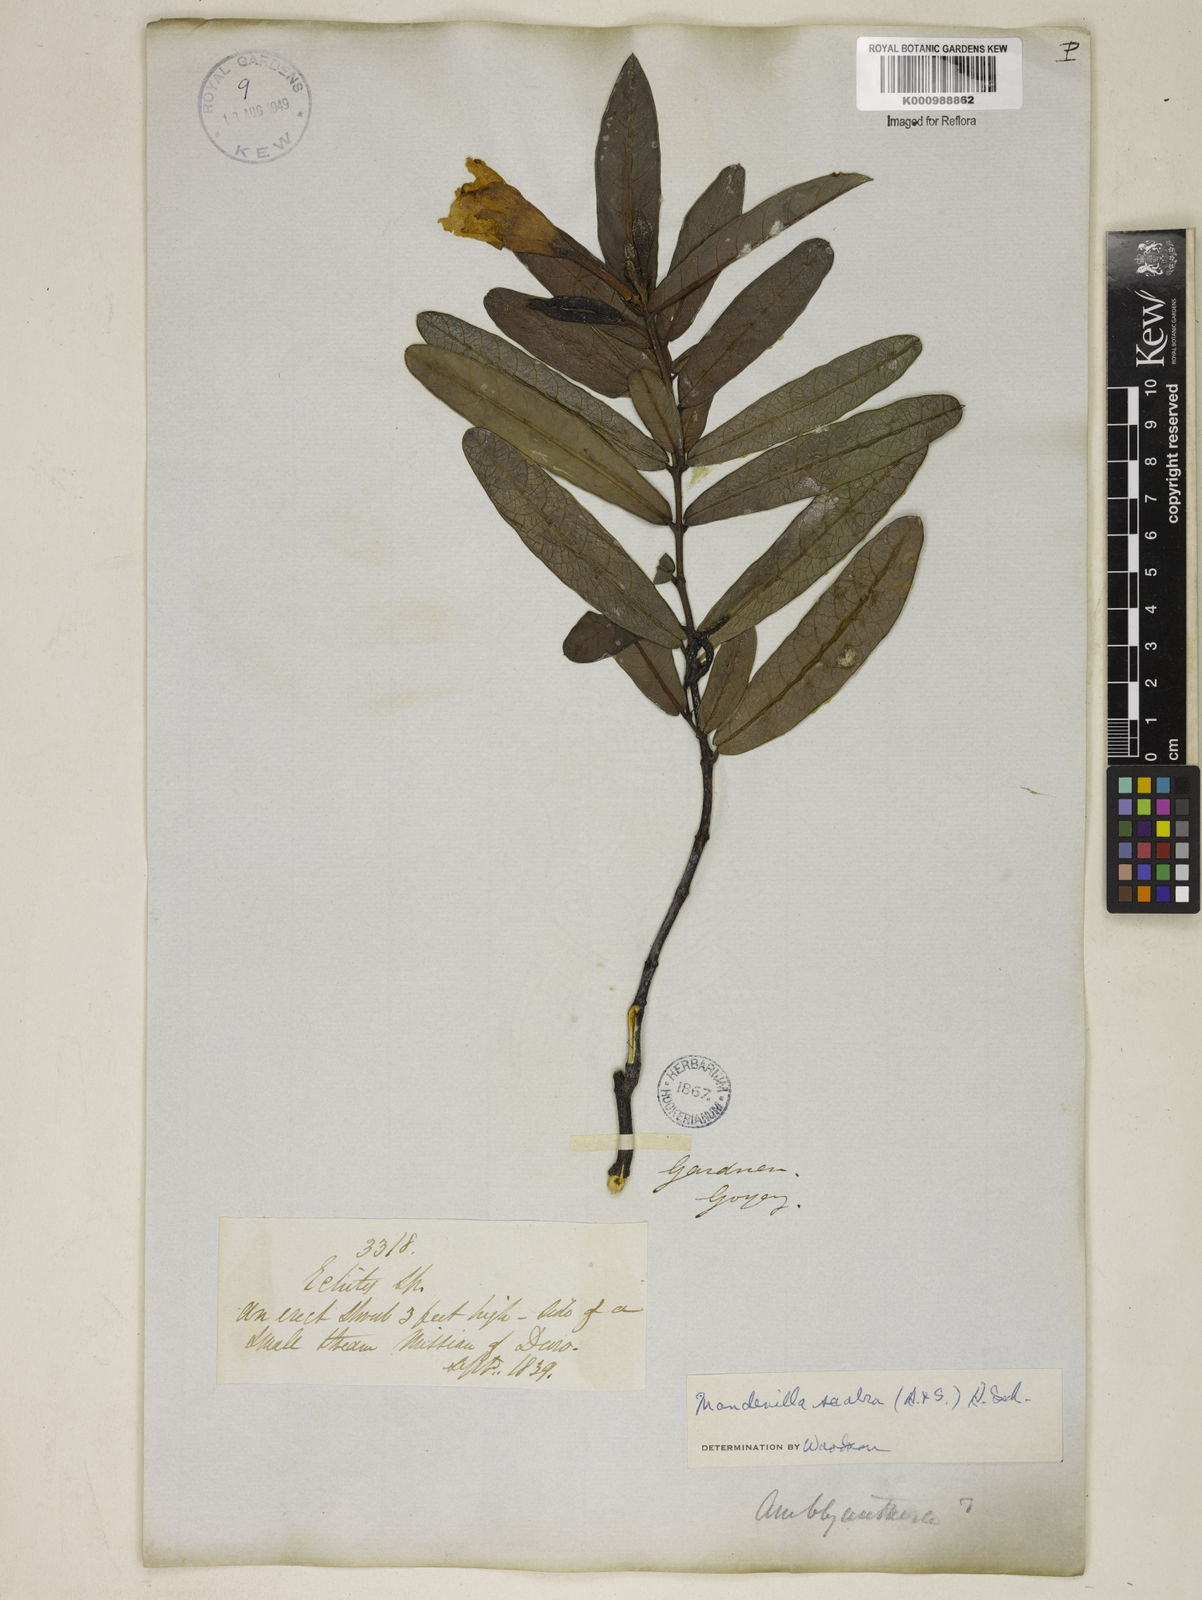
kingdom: Plantae
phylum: Tracheophyta
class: Magnoliopsida
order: Gentianales
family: Apocynaceae
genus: Mandevilla
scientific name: Mandevilla scabra
